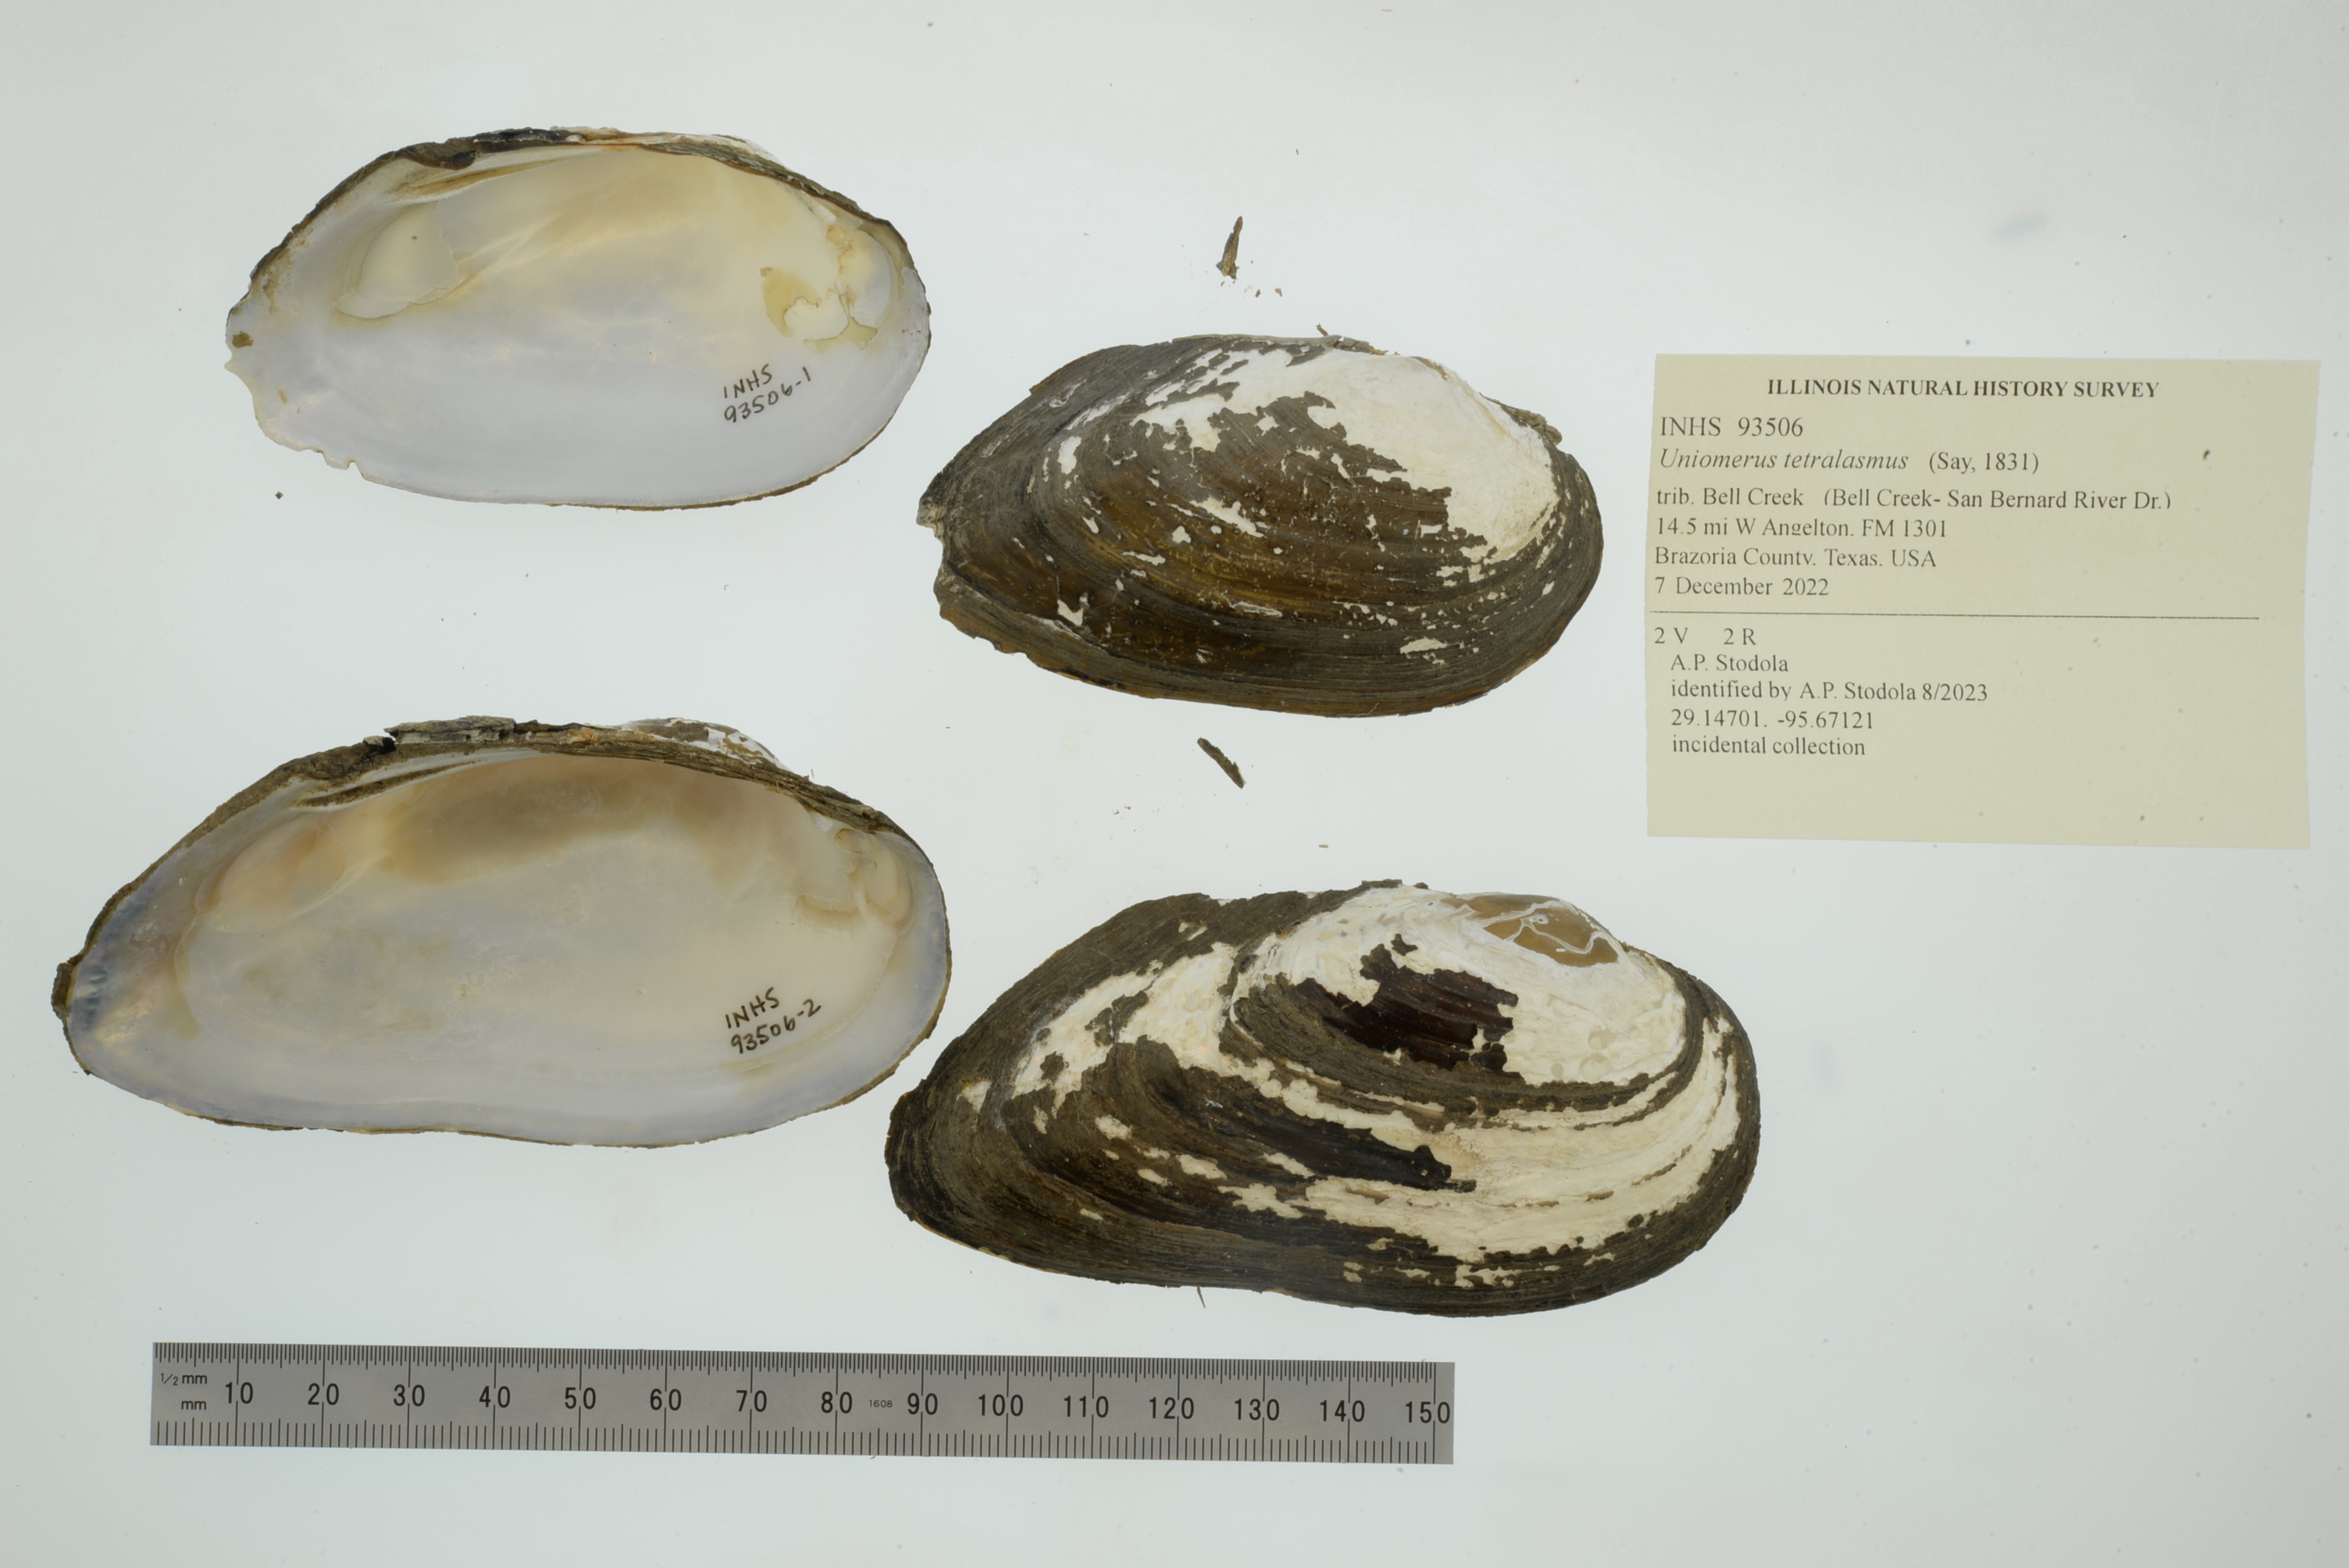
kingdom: Animalia
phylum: Mollusca
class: Bivalvia
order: Unionida
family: Unionidae
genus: Uniomerus
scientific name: Uniomerus tetralasmus
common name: Pondhorn
